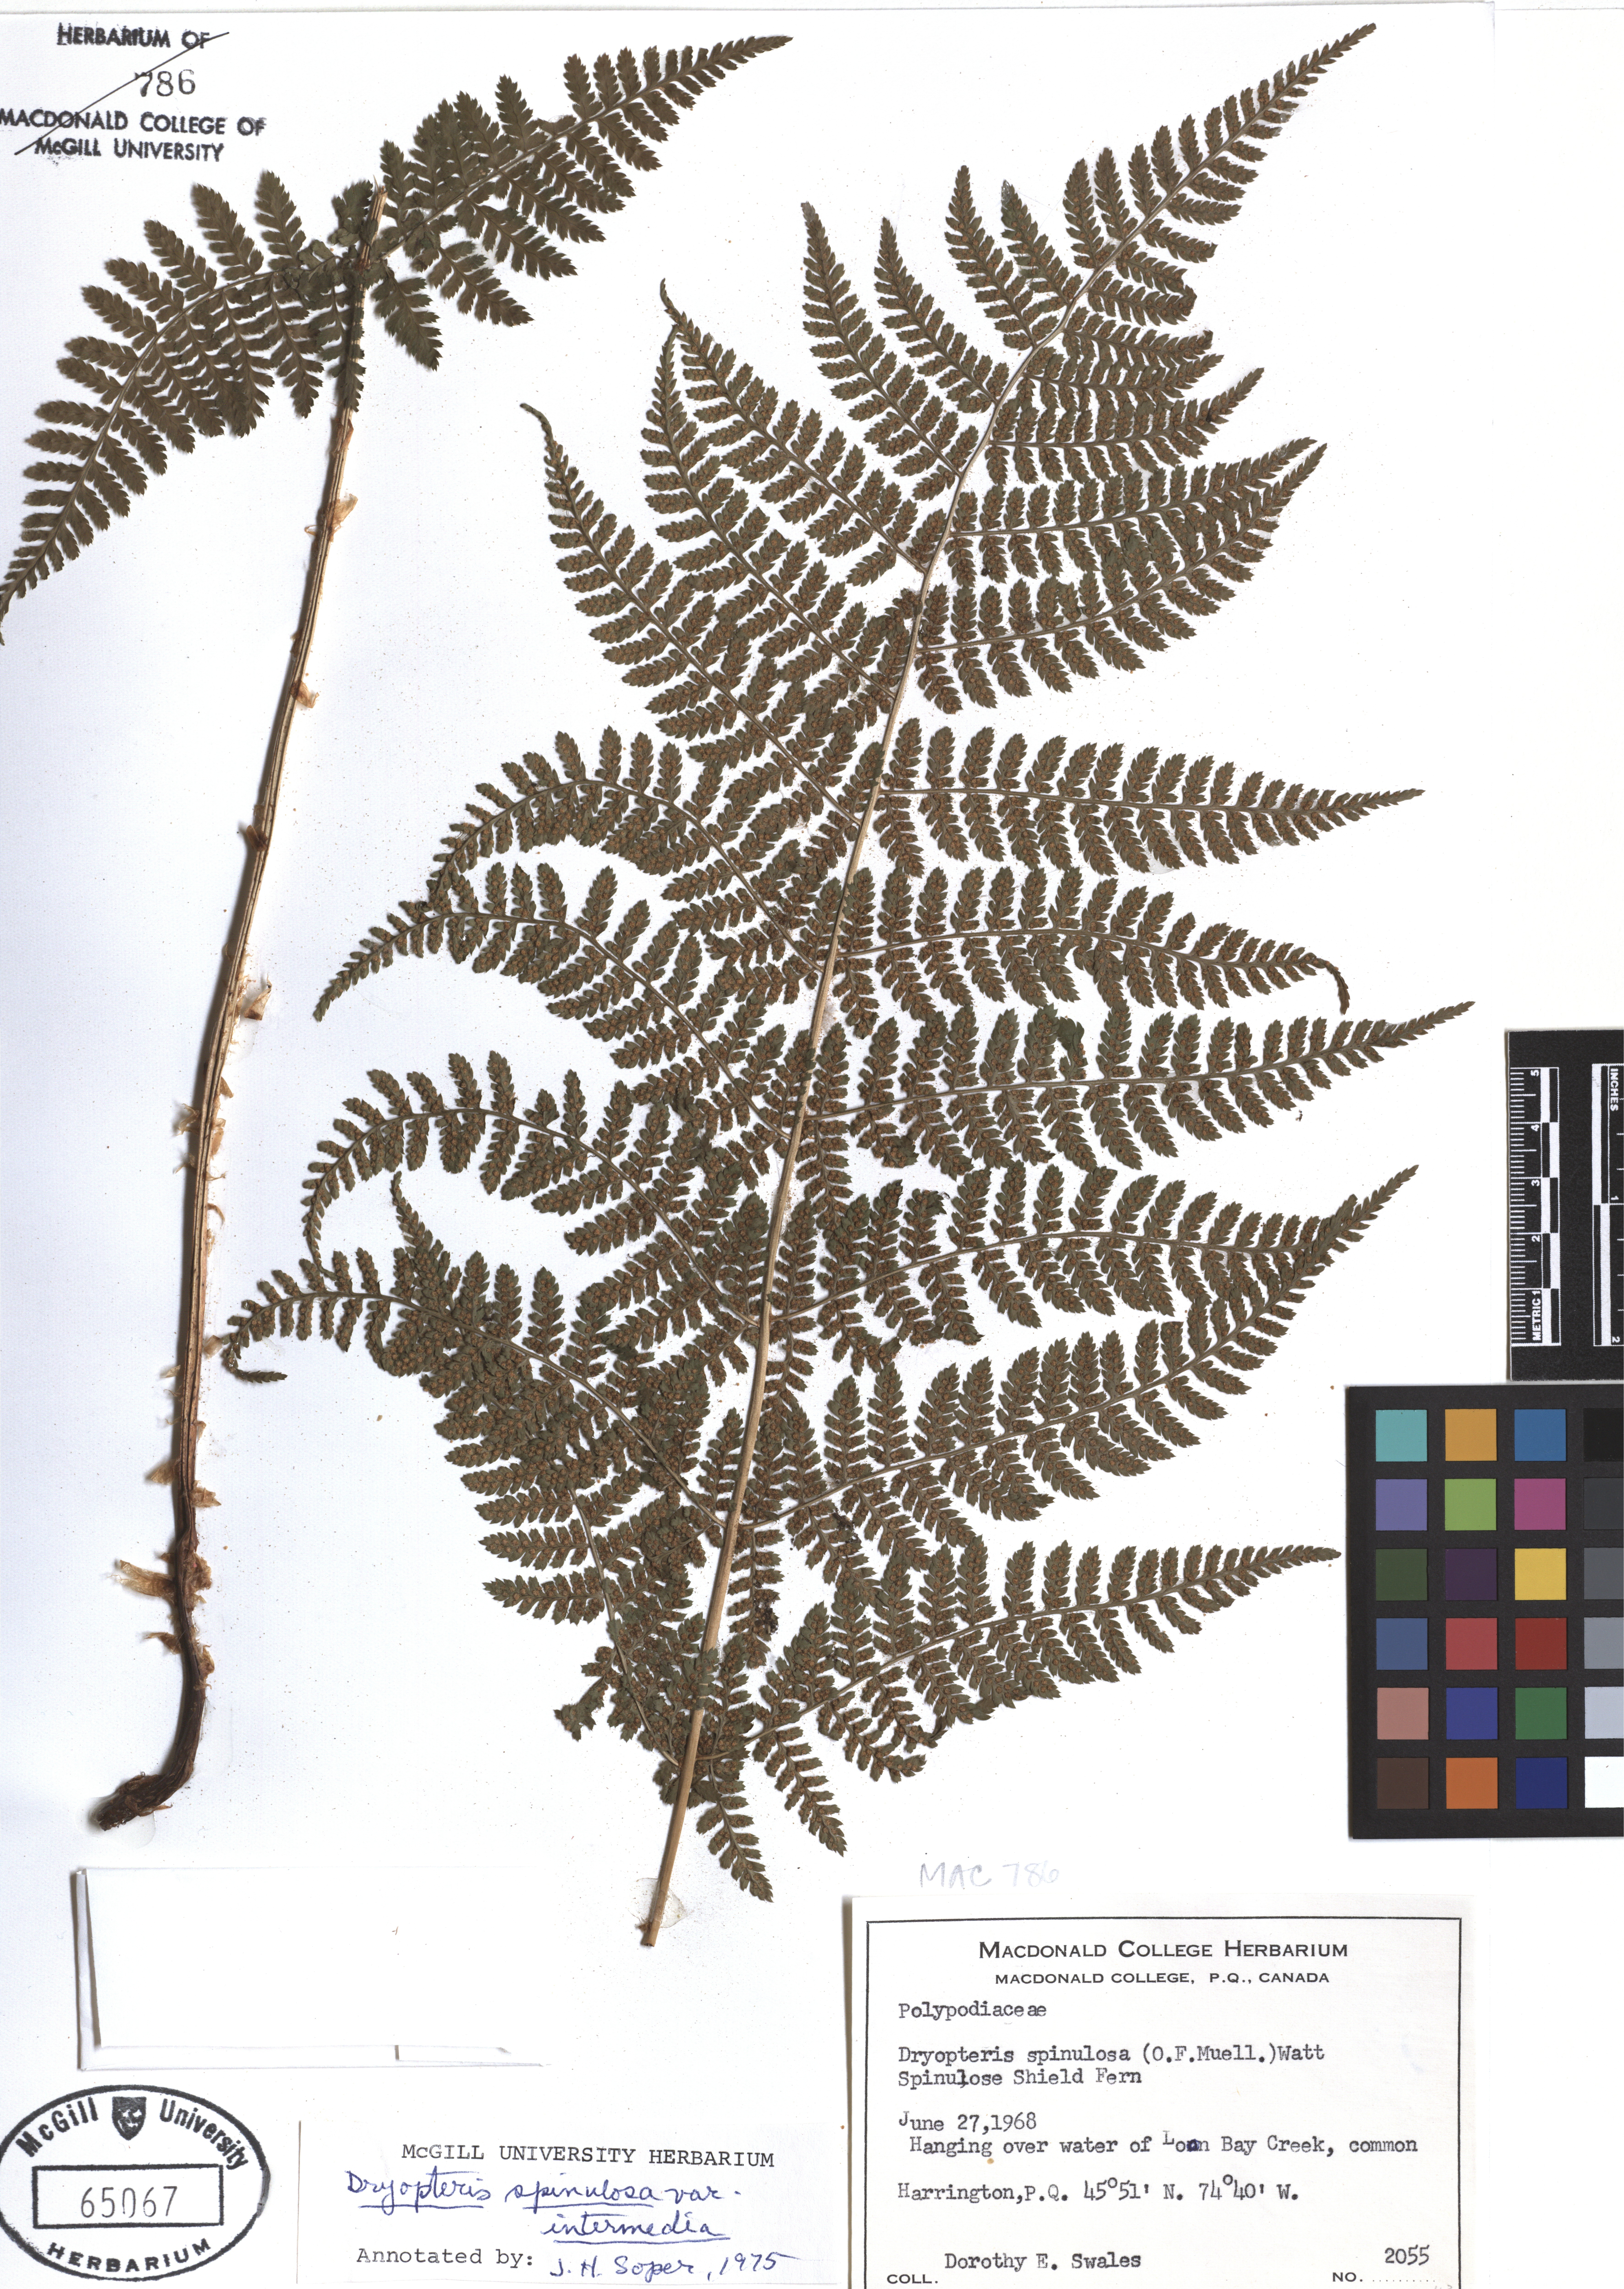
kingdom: Plantae
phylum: Tracheophyta
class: Polypodiopsida
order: Polypodiales
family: Dryopteridaceae
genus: Dryopteris
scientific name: Dryopteris intermedia
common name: Evergreen wood fern
